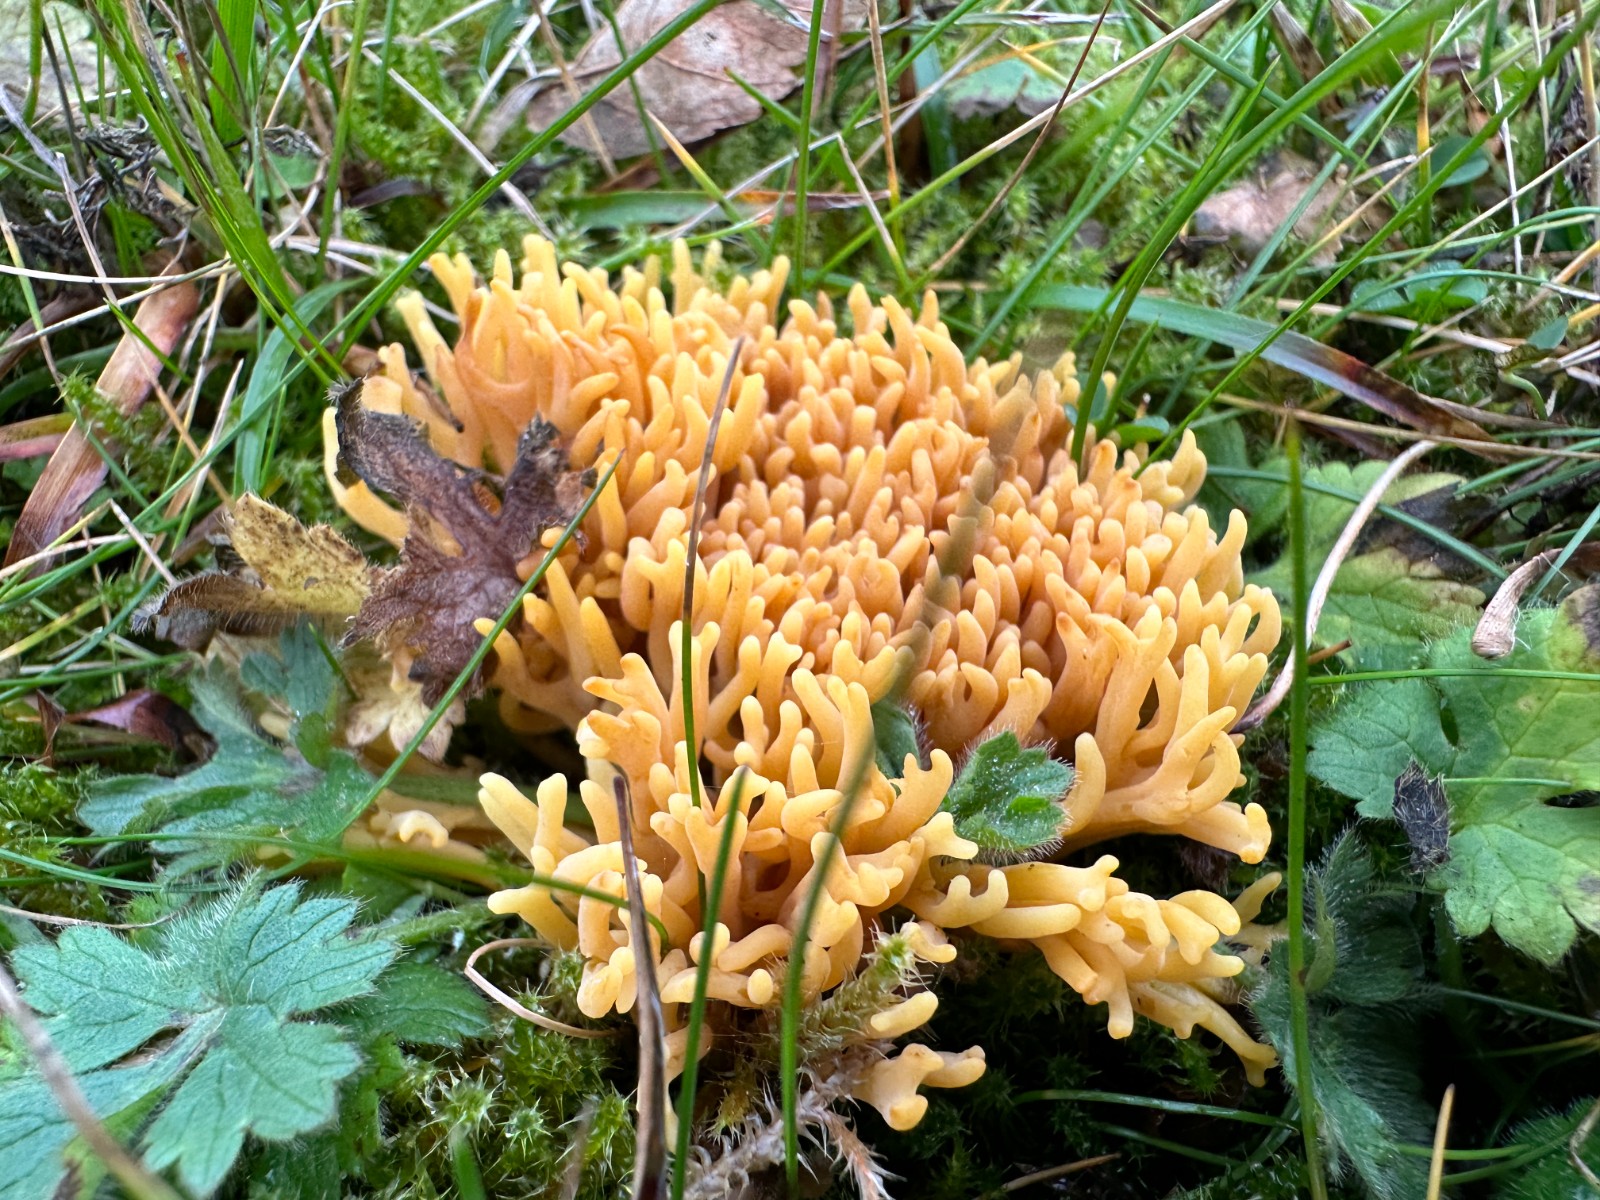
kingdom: Fungi
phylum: Basidiomycota
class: Agaricomycetes
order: Agaricales
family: Clavariaceae
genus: Clavulinopsis
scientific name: Clavulinopsis corniculata
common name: eng-køllesvamp
